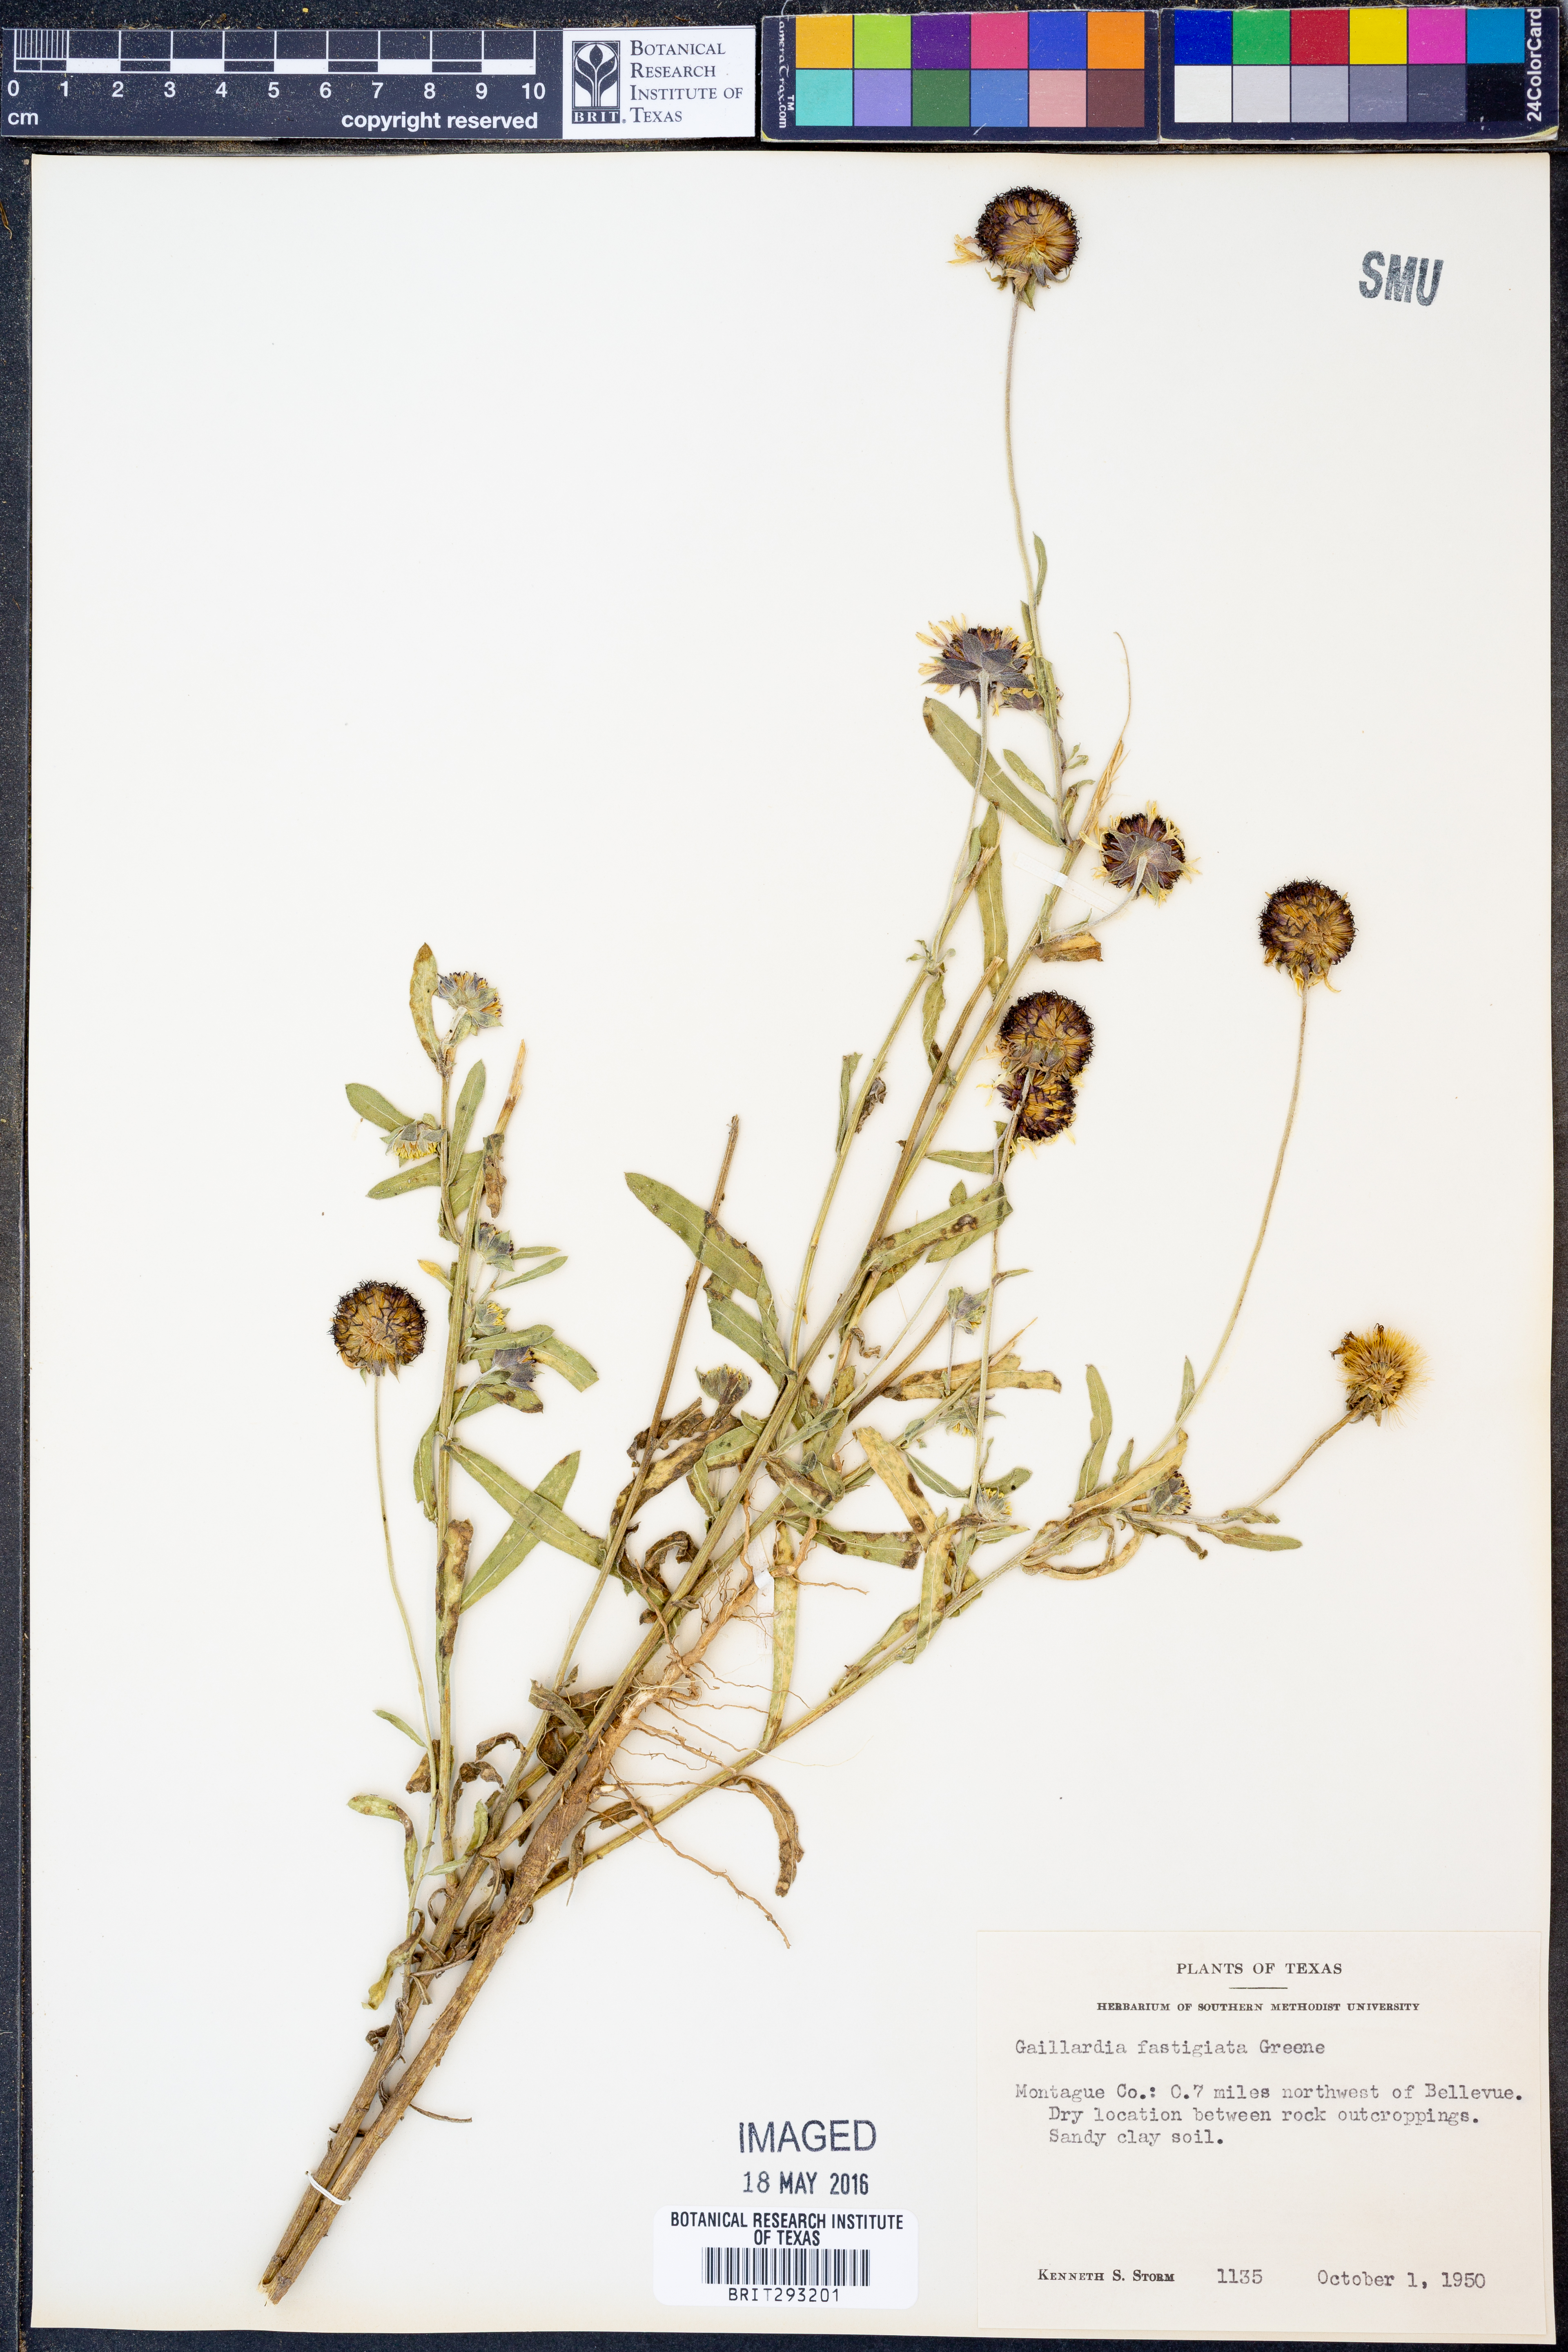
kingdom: Plantae
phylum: Tracheophyta
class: Magnoliopsida
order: Asterales
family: Asteraceae
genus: Gaillardia
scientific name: Gaillardia aestivalis
